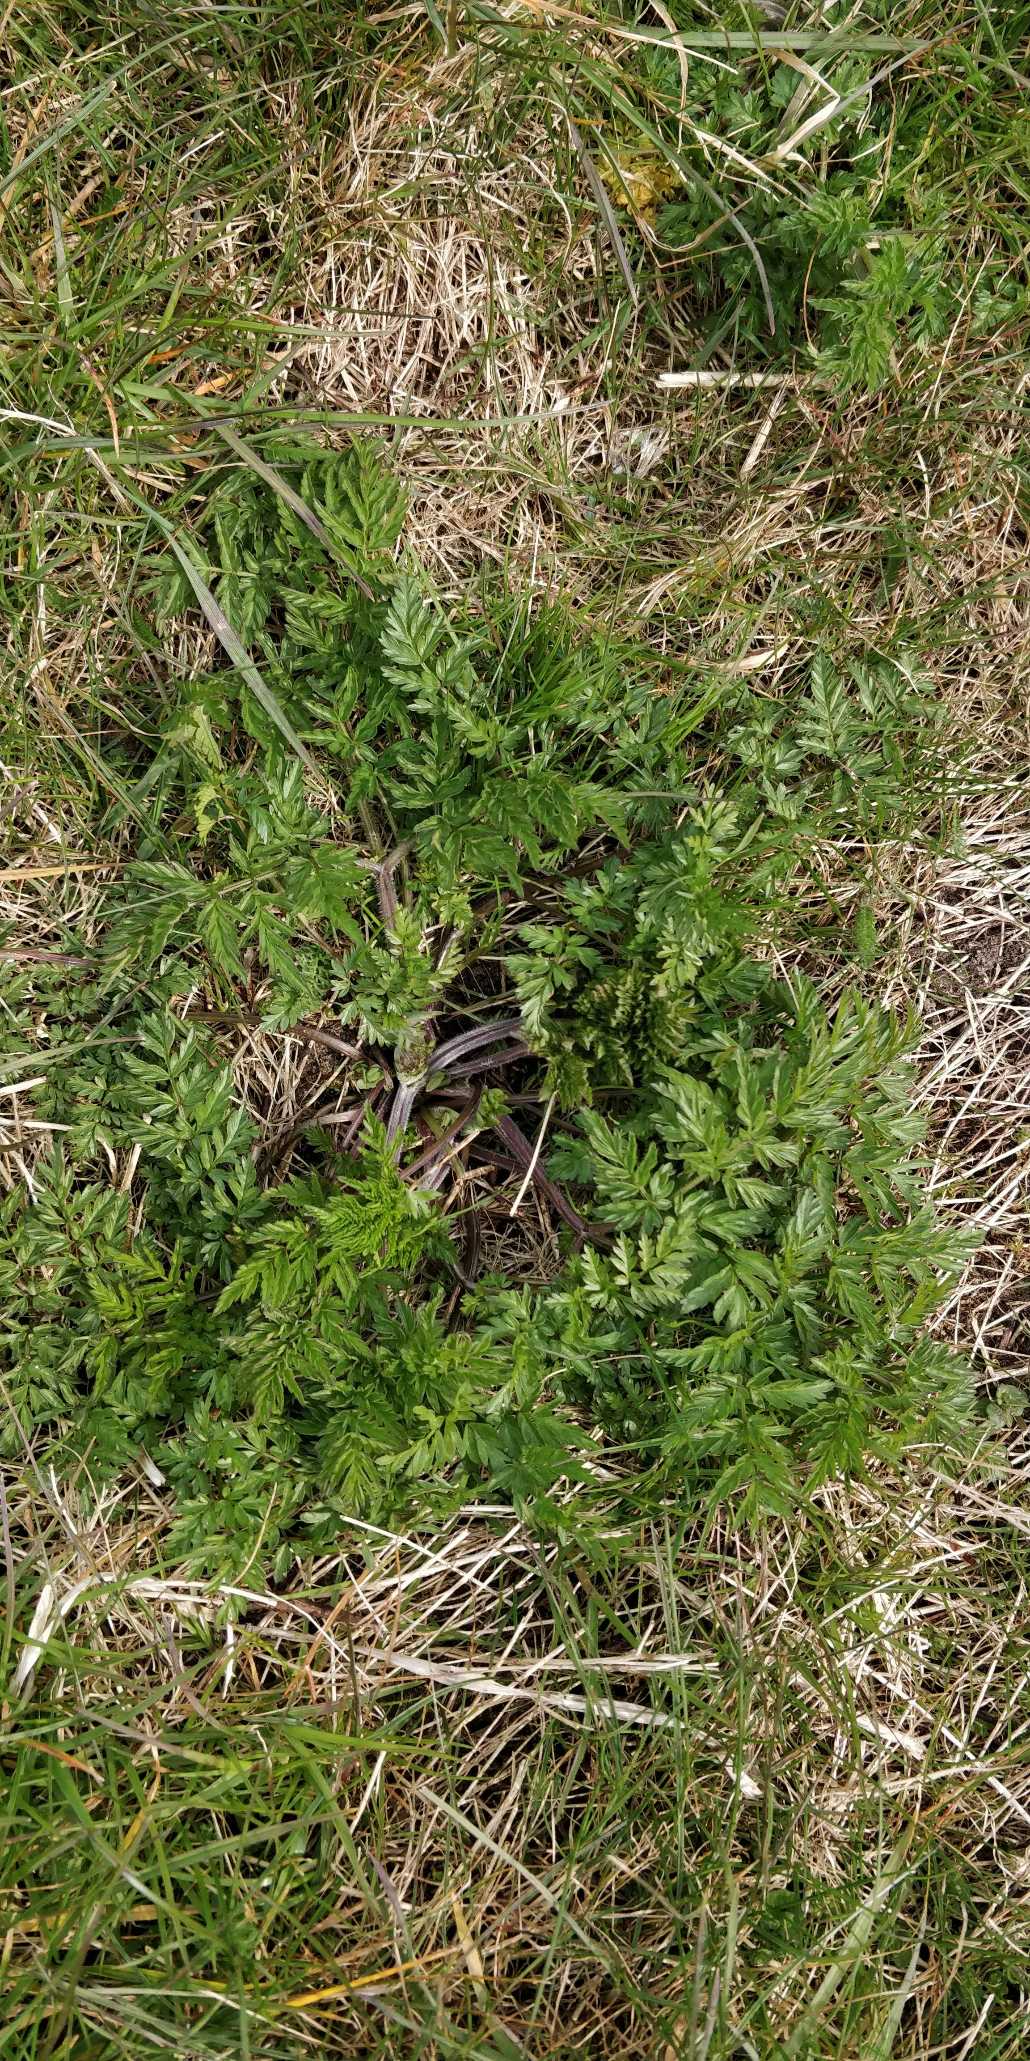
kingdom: Plantae
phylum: Tracheophyta
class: Magnoliopsida
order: Apiales
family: Apiaceae
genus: Anthriscus
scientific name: Anthriscus sylvestris
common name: Vild kørvel
